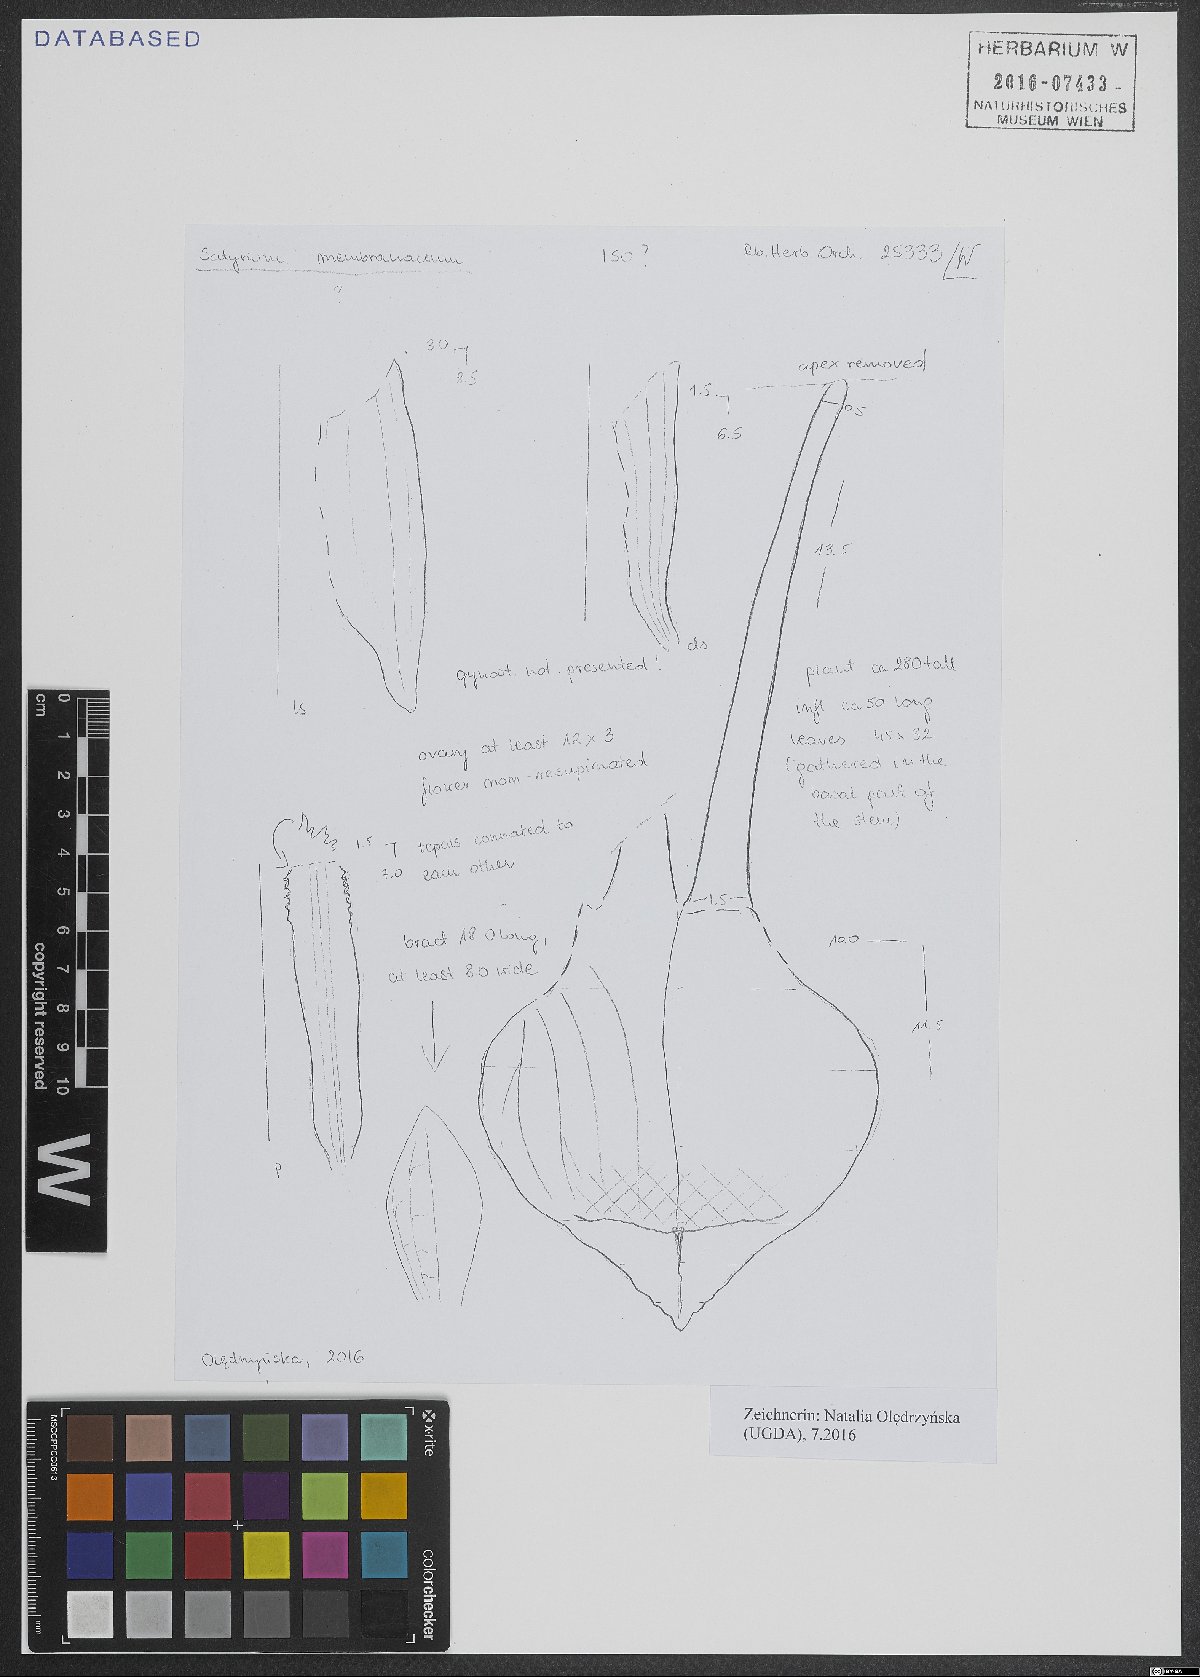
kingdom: Plantae
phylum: Tracheophyta
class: Liliopsida
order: Asparagales
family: Orchidaceae
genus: Satyrium
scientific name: Satyrium membranaceum
